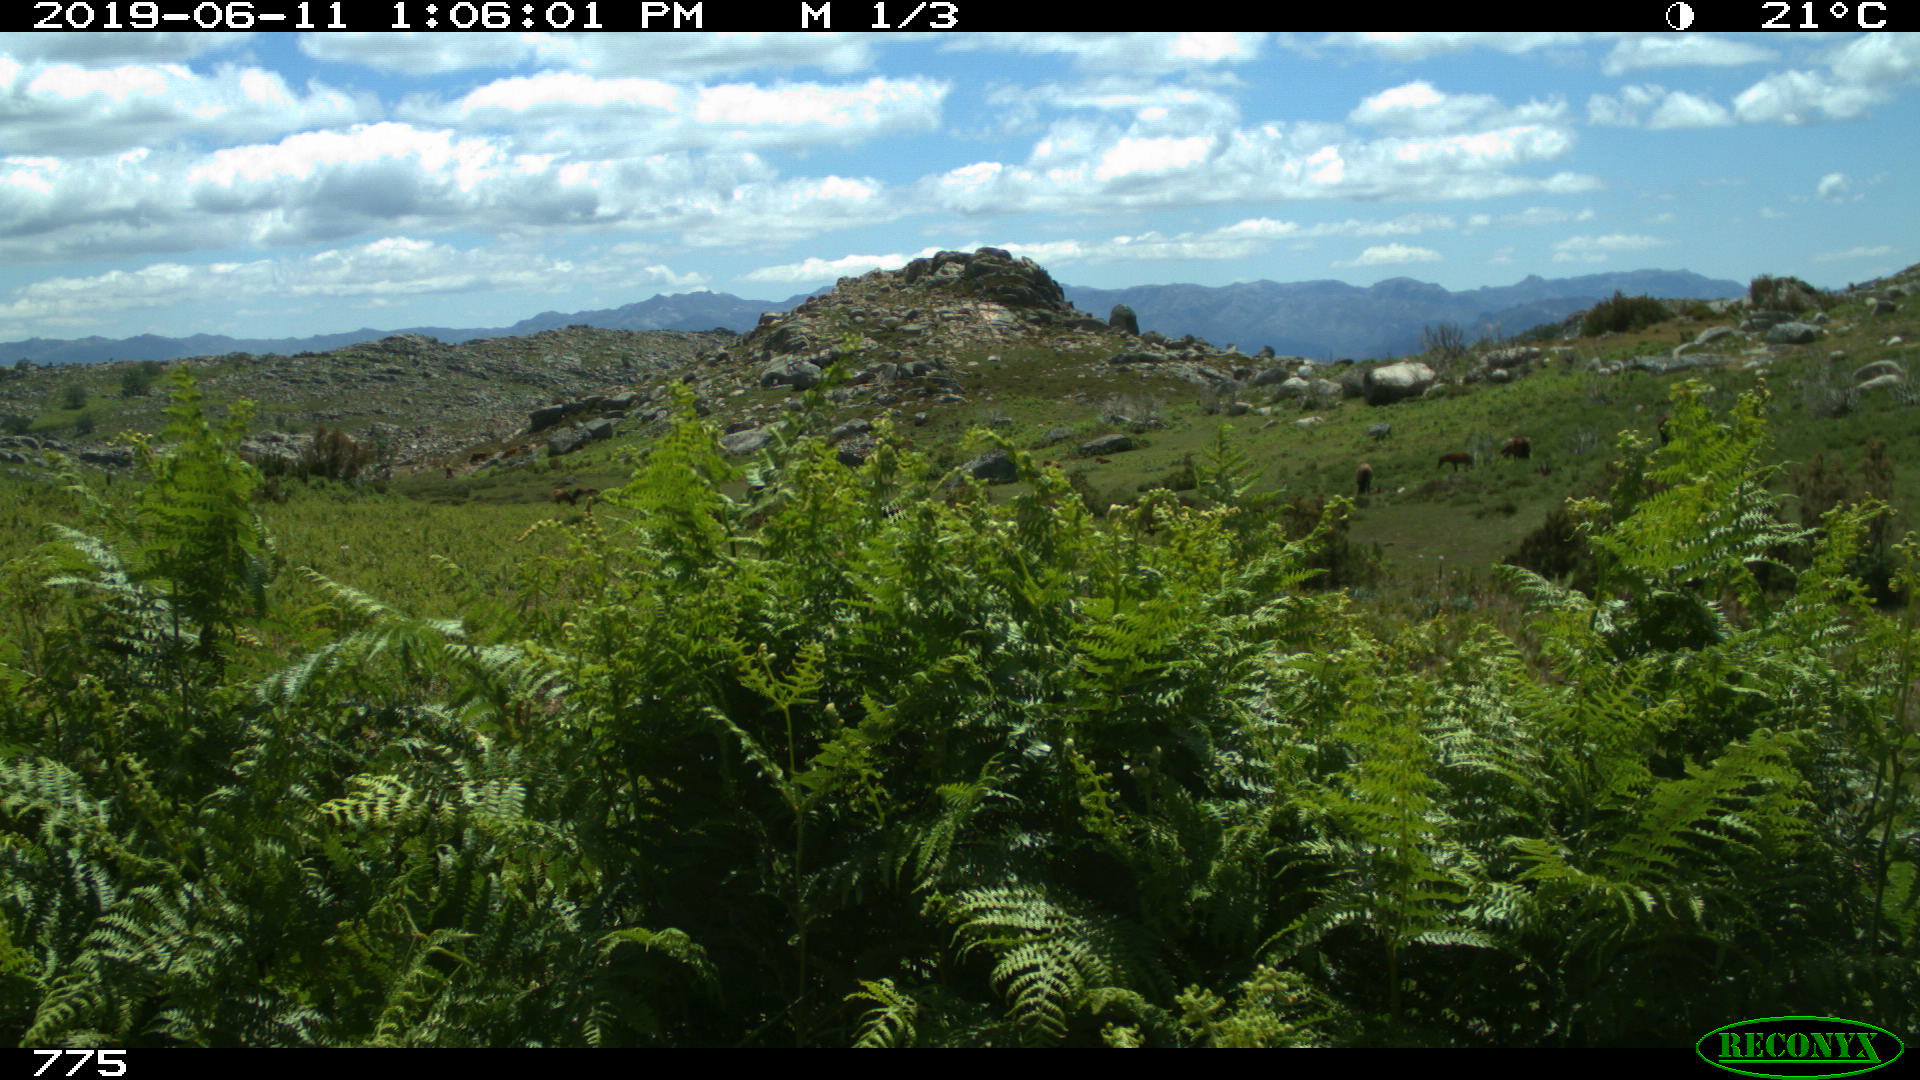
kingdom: Animalia
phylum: Chordata
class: Mammalia
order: Perissodactyla
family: Equidae
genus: Equus
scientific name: Equus caballus
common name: Horse
